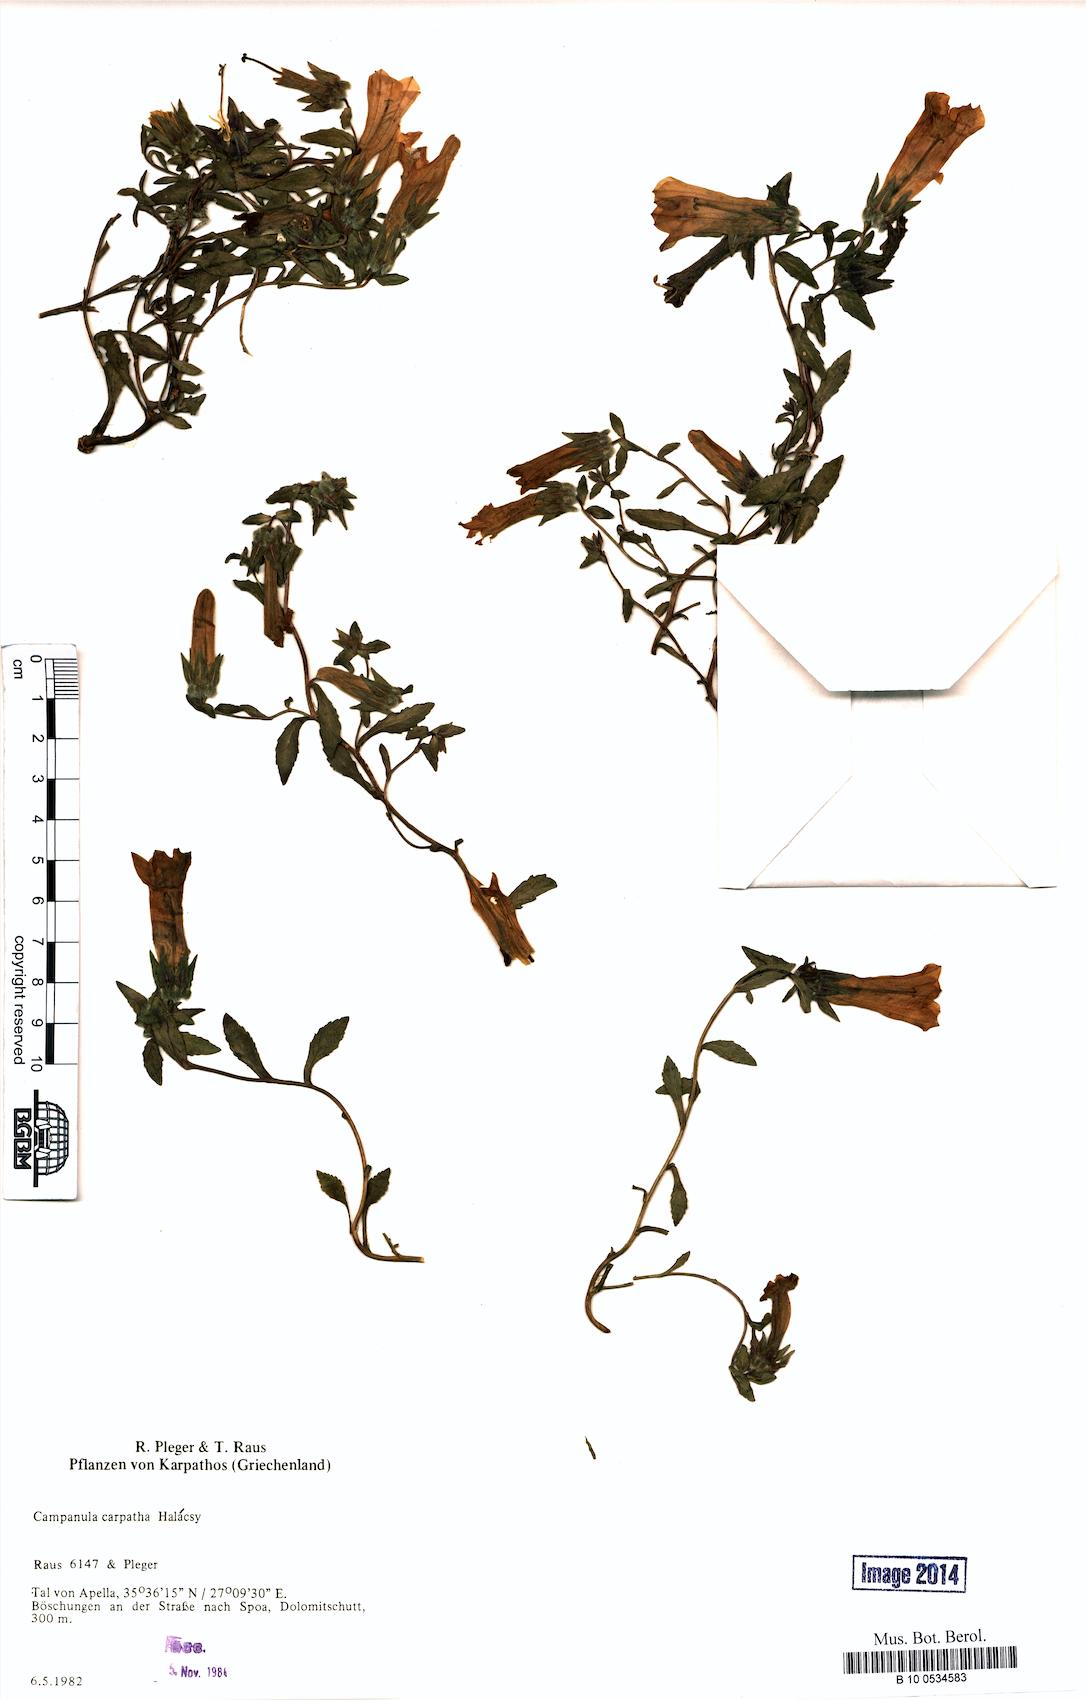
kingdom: Plantae
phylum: Tracheophyta
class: Magnoliopsida
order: Asterales
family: Campanulaceae
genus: Campanula
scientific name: Campanula carpatha
